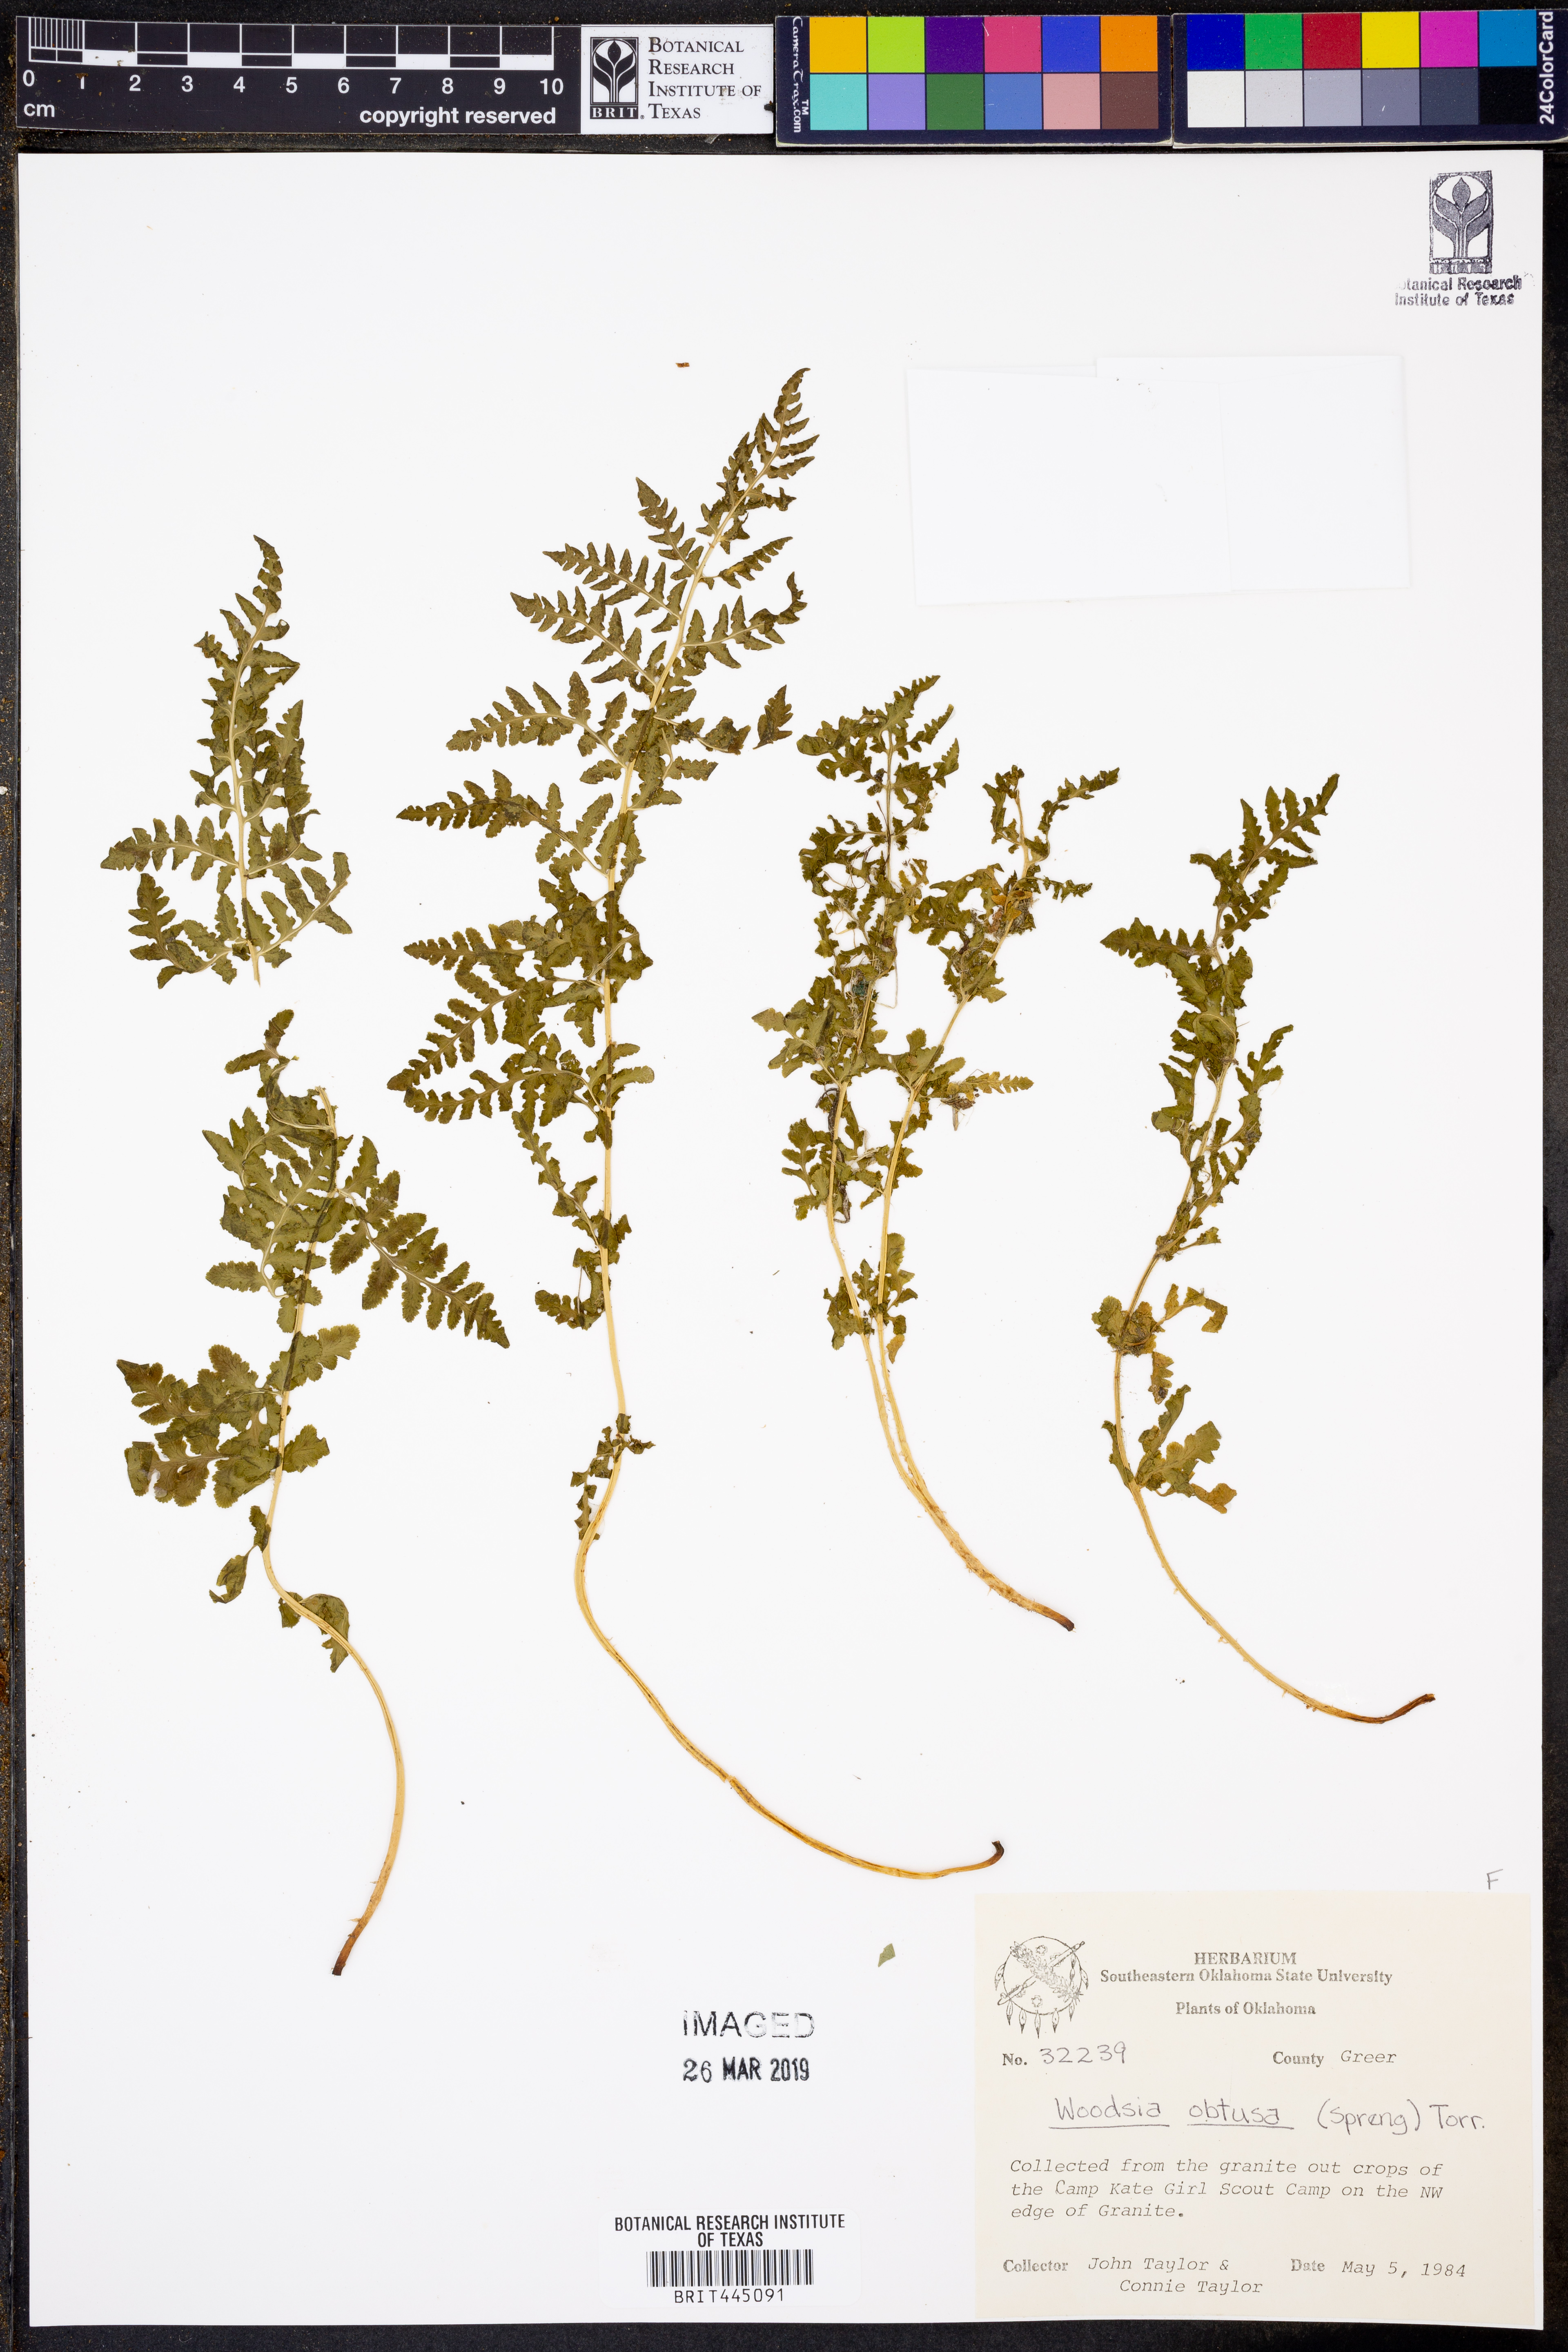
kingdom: Plantae
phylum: Tracheophyta
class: Polypodiopsida
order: Polypodiales
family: Woodsiaceae
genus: Physematium
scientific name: Physematium obtusum
